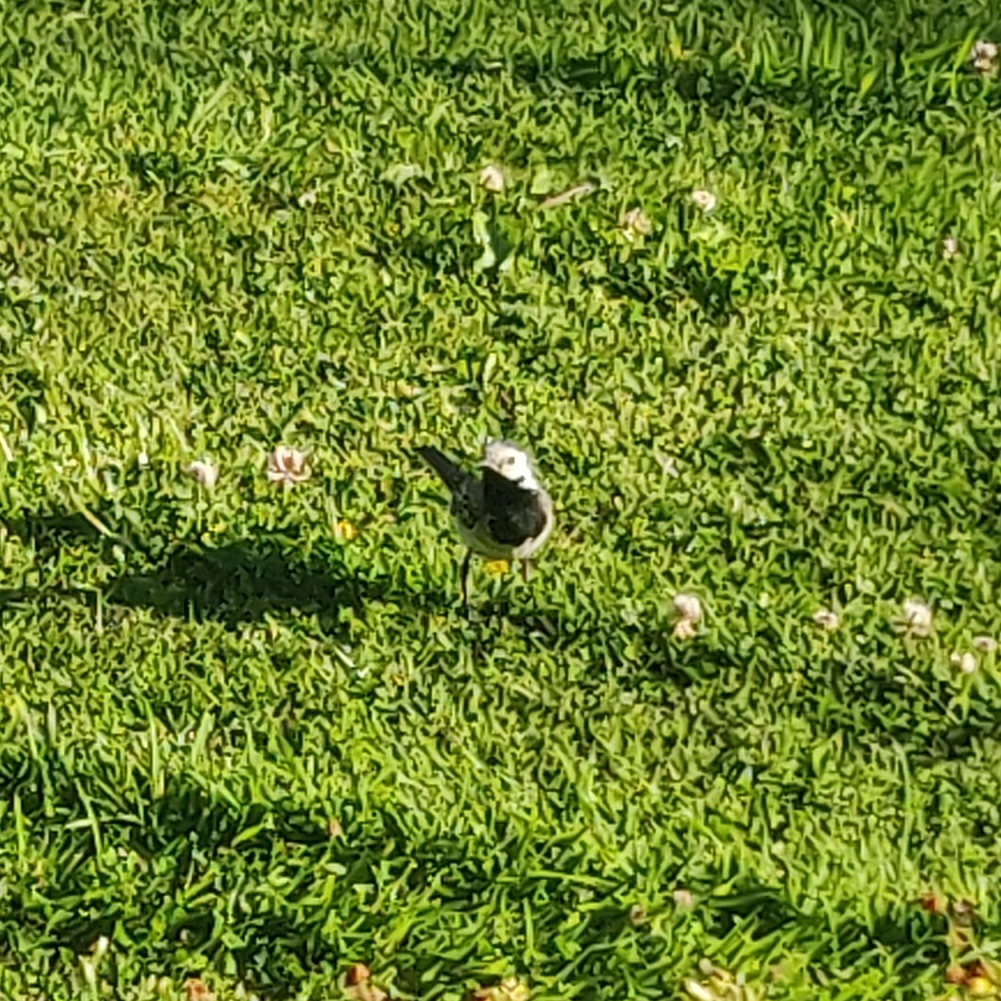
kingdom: Animalia
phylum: Chordata
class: Aves
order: Passeriformes
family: Motacillidae
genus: Motacilla
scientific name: Motacilla alba
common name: Hvid vipstjert
